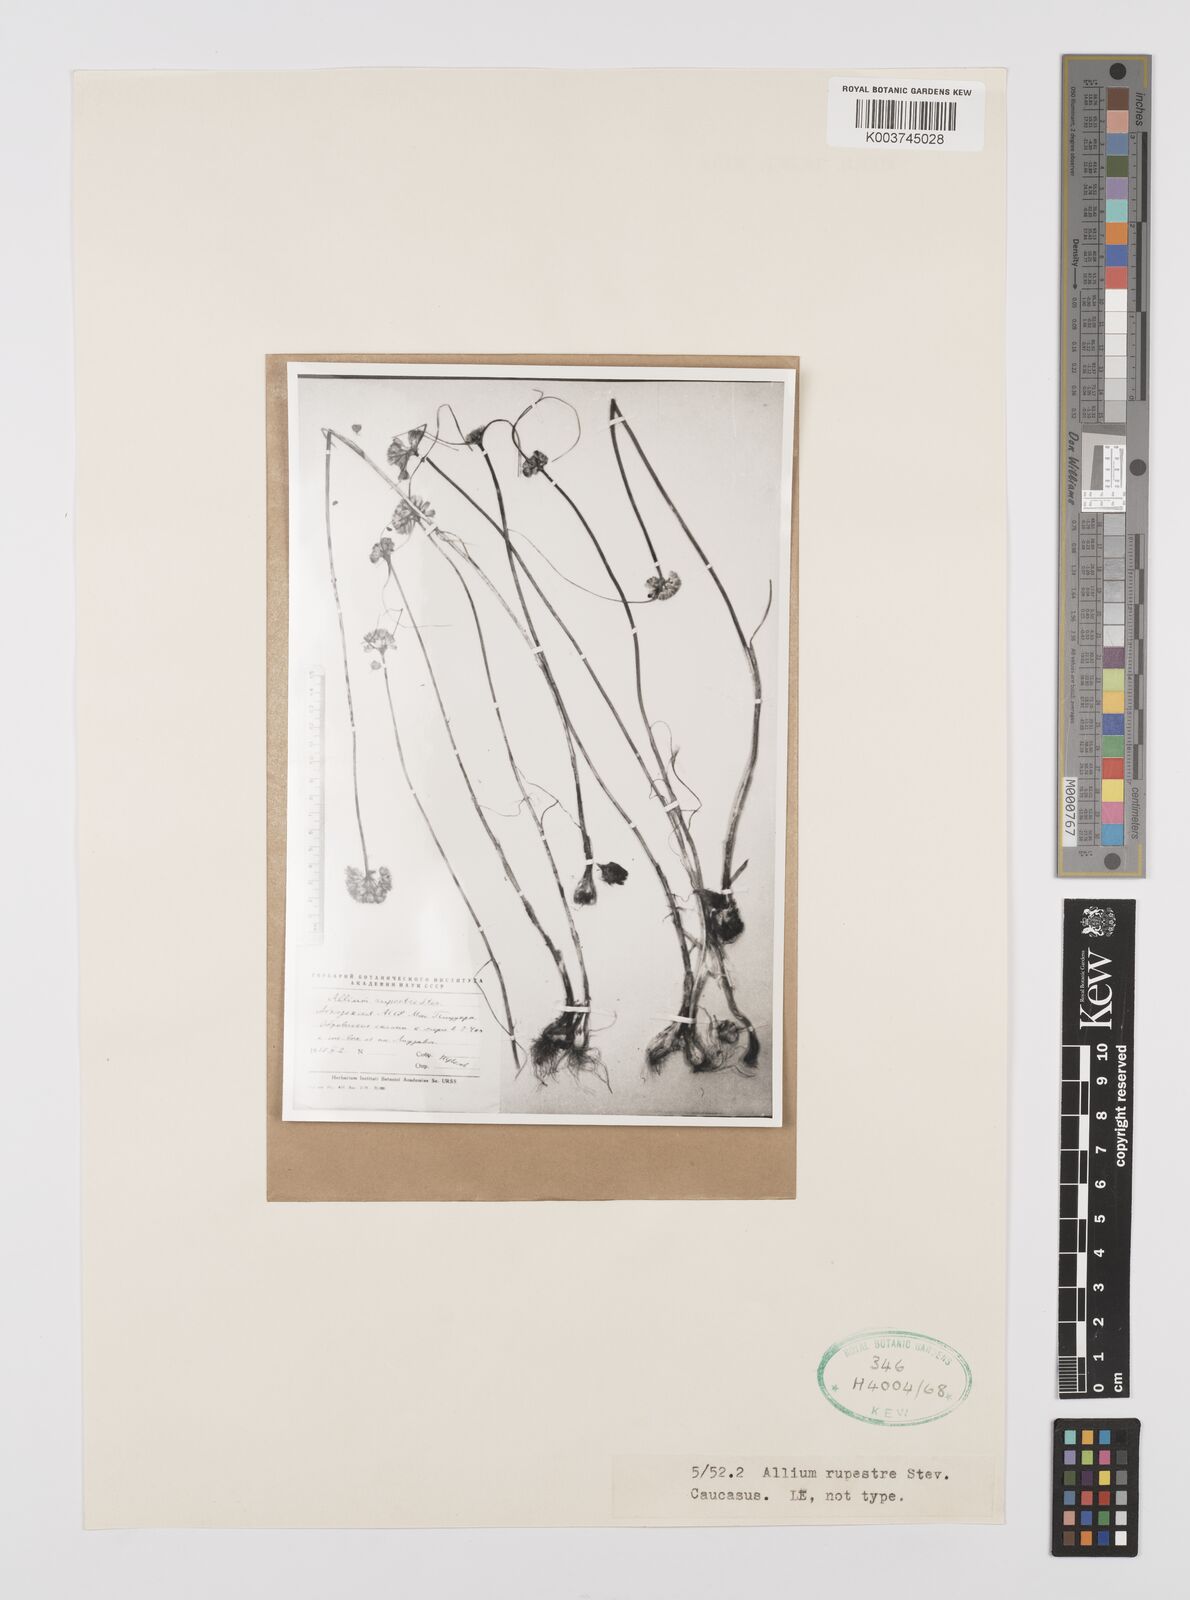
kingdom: Plantae
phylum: Tracheophyta
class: Liliopsida
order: Asparagales
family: Amaryllidaceae
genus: Allium
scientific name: Allium rupestre
